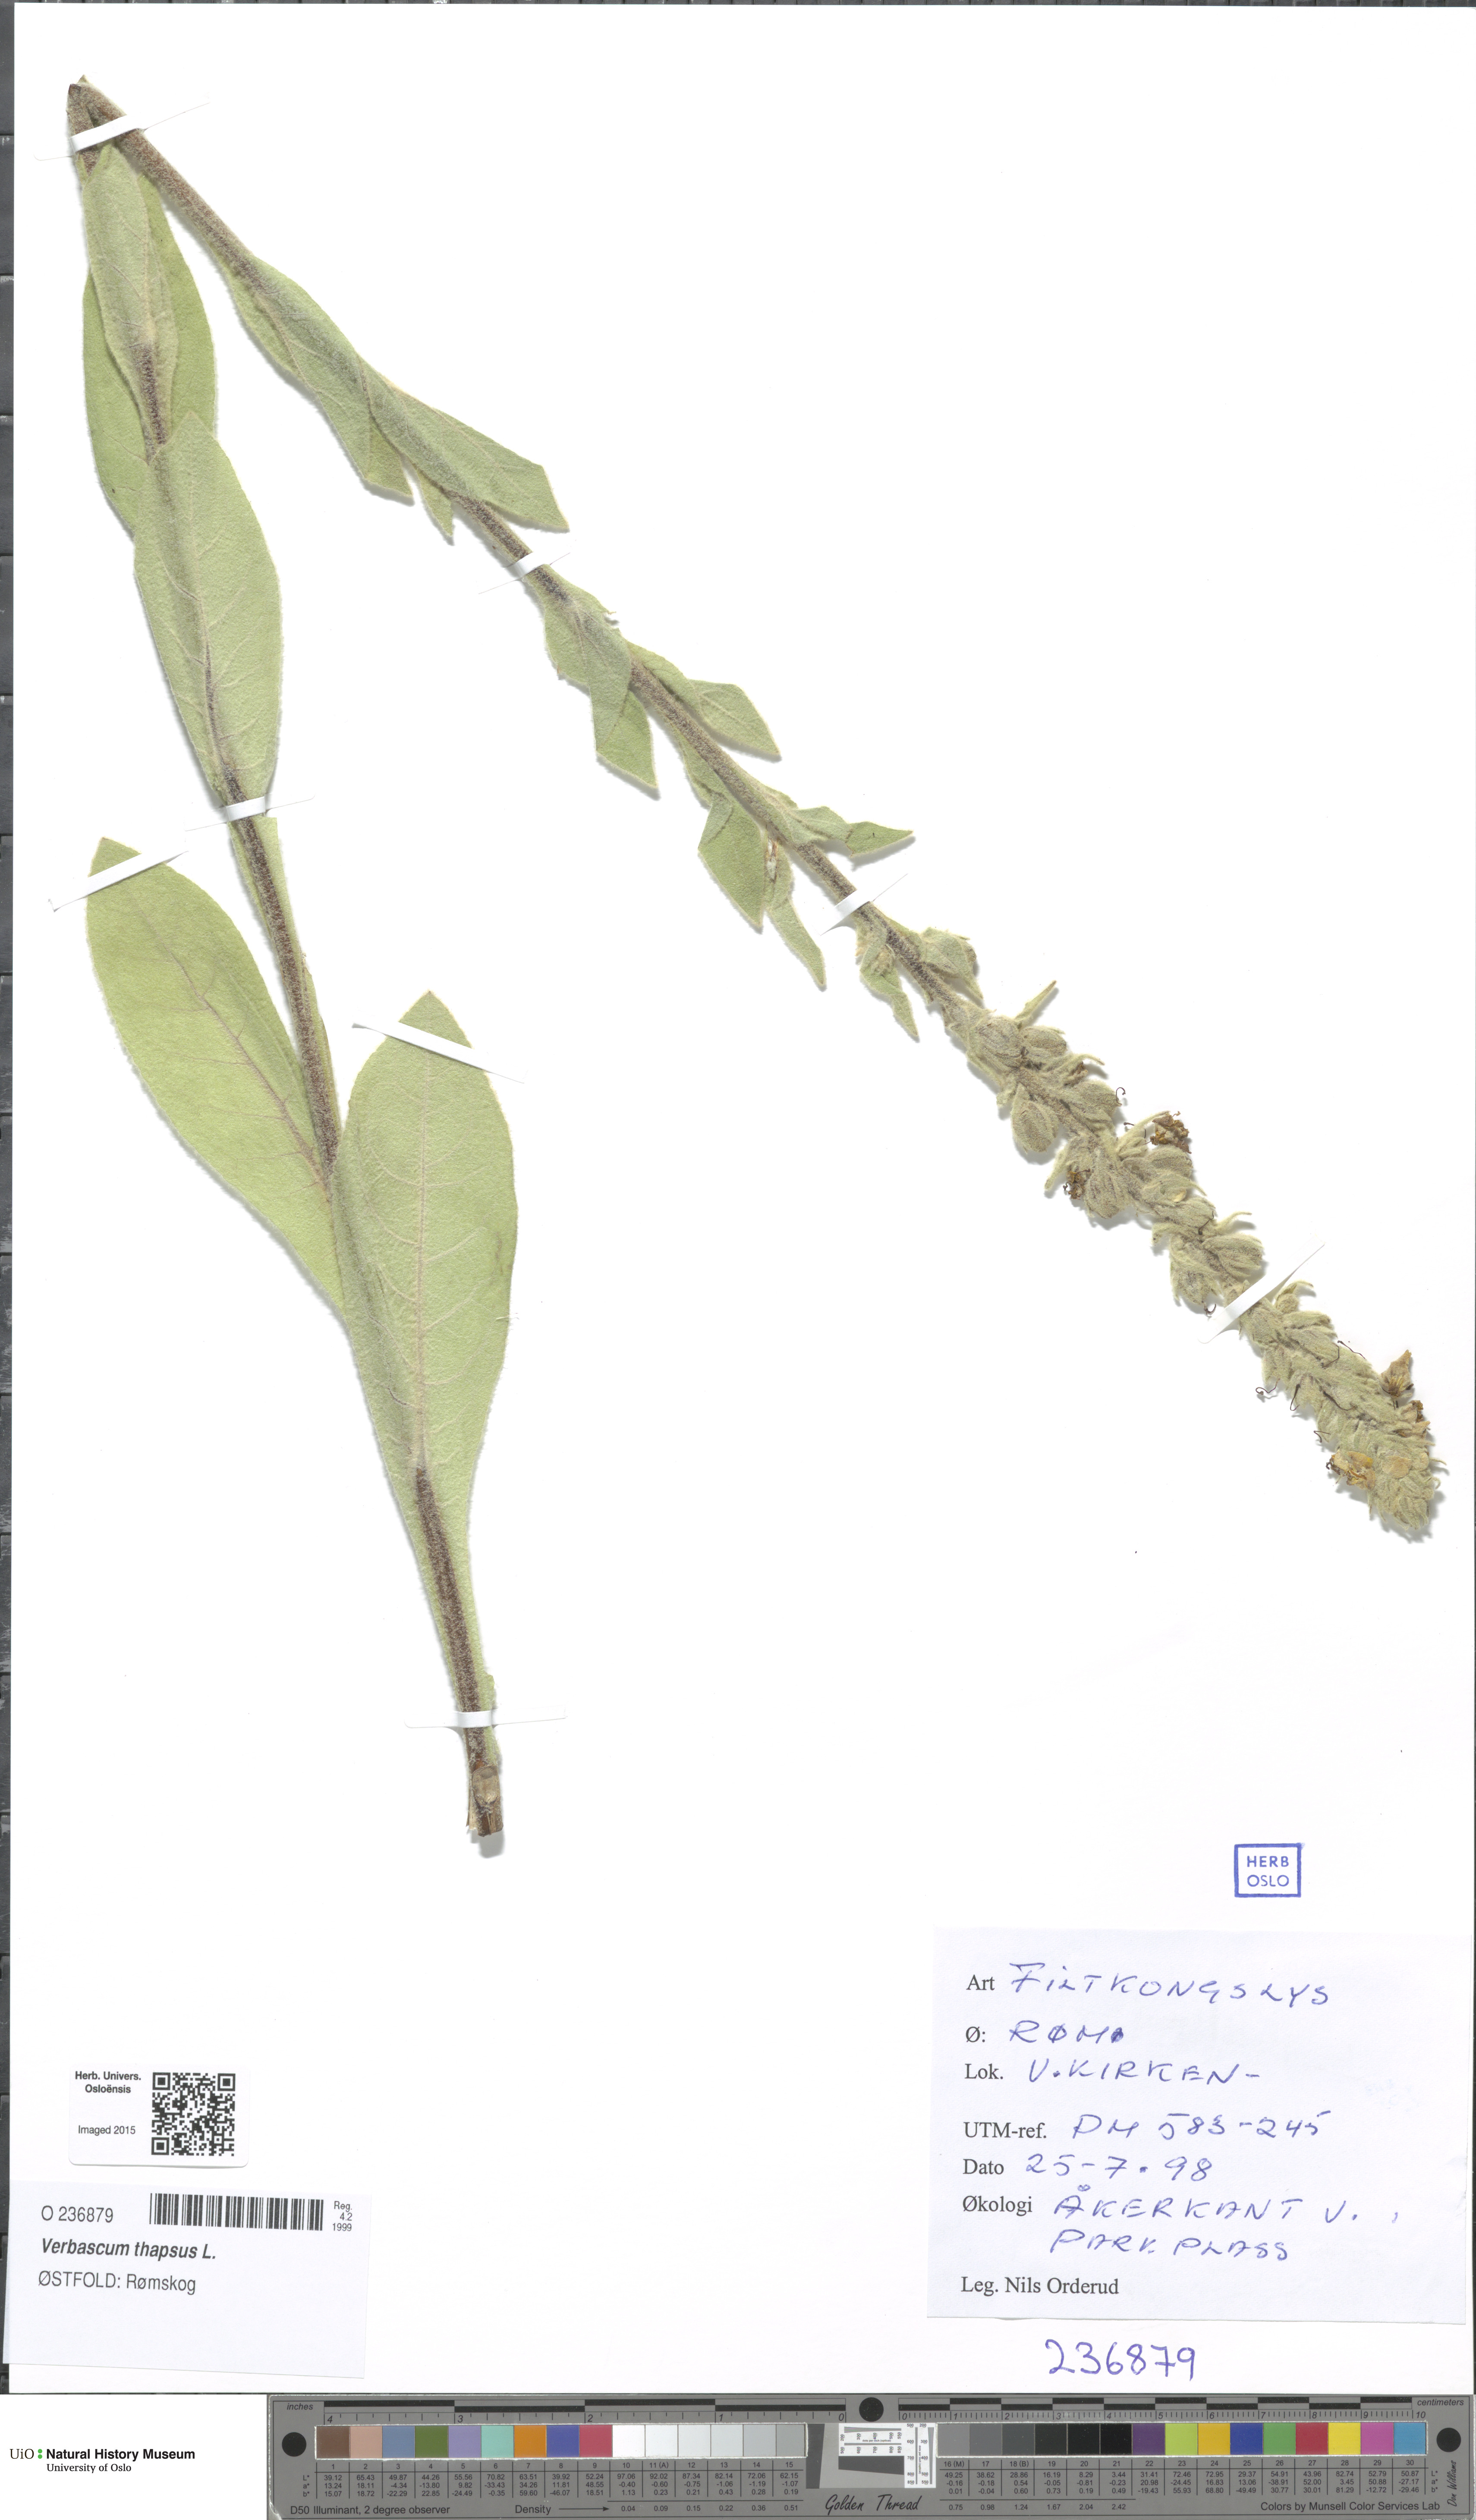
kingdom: Plantae
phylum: Tracheophyta
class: Magnoliopsida
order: Lamiales
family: Scrophulariaceae
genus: Verbascum
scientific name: Verbascum thapsus
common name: Common mullein
